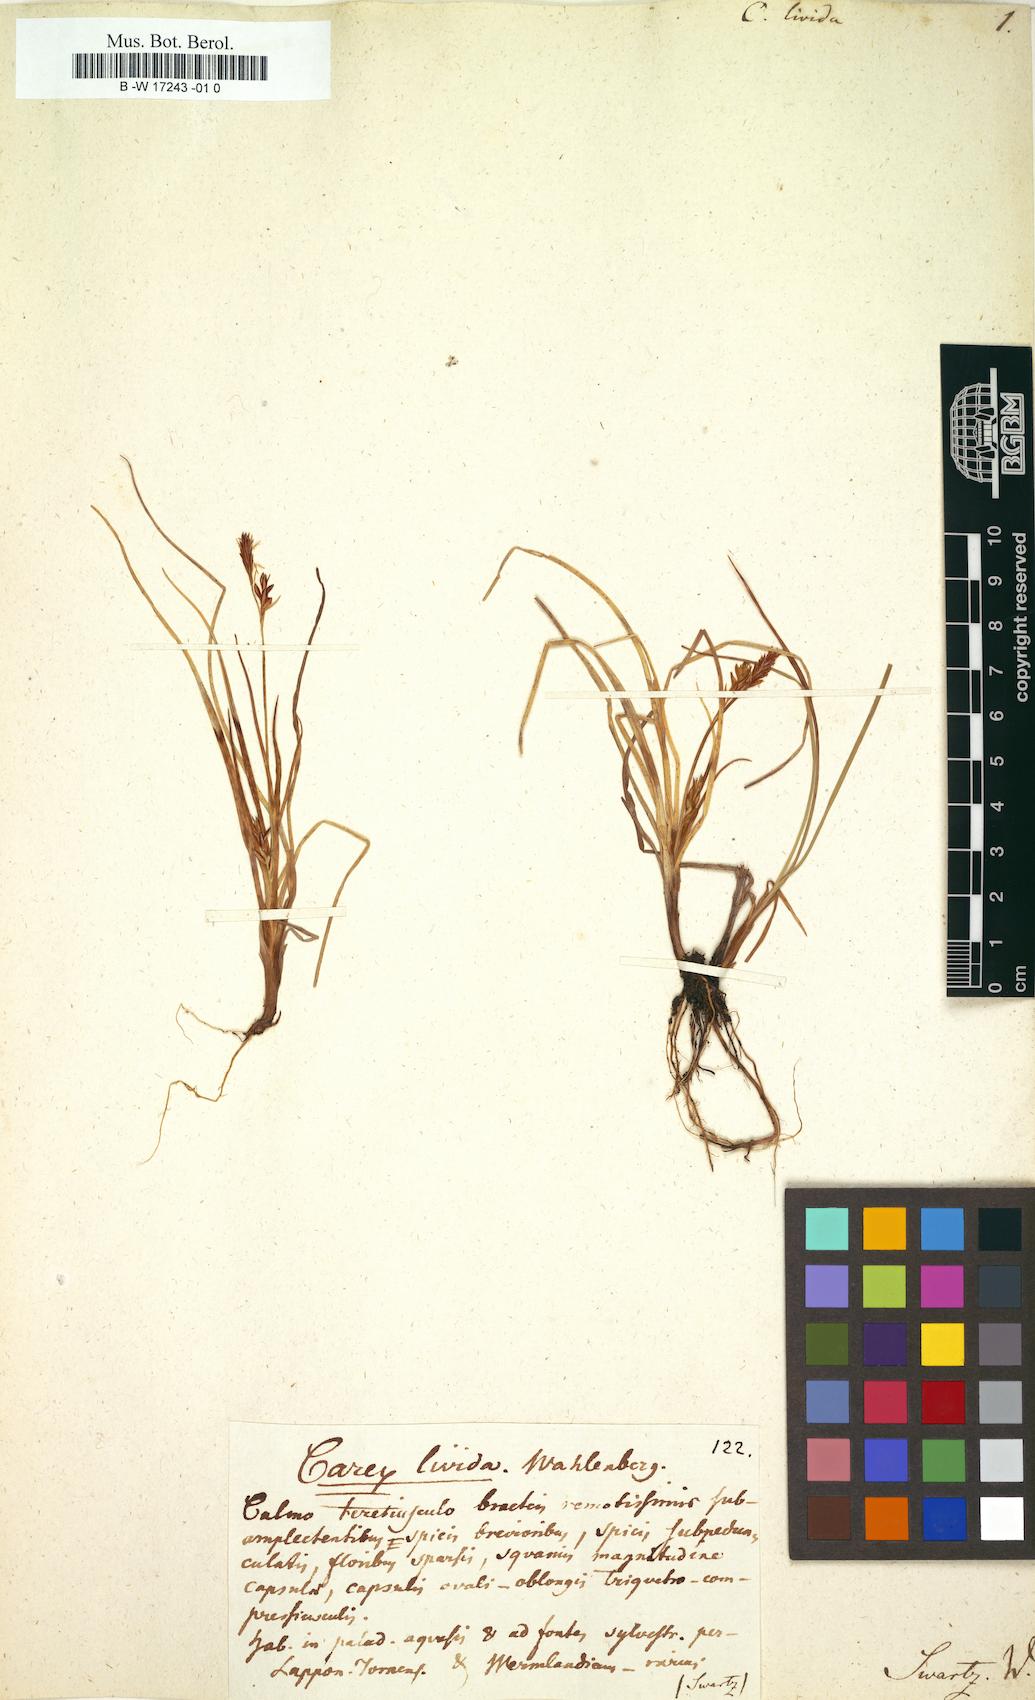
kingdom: Plantae
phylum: Tracheophyta
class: Liliopsida
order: Poales
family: Cyperaceae
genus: Carex
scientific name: Carex livida
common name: Livid sedge
